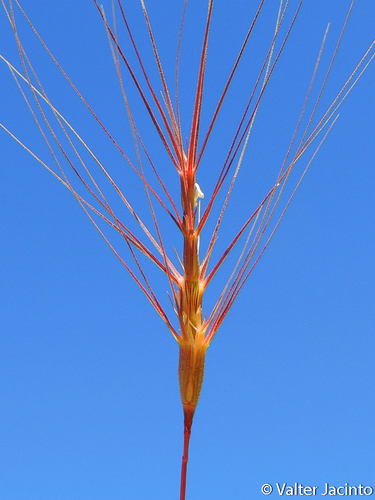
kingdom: Plantae
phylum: Tracheophyta
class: Liliopsida
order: Poales
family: Poaceae
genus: Aegilops
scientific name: Aegilops triuncialis
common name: Barb goat grass
